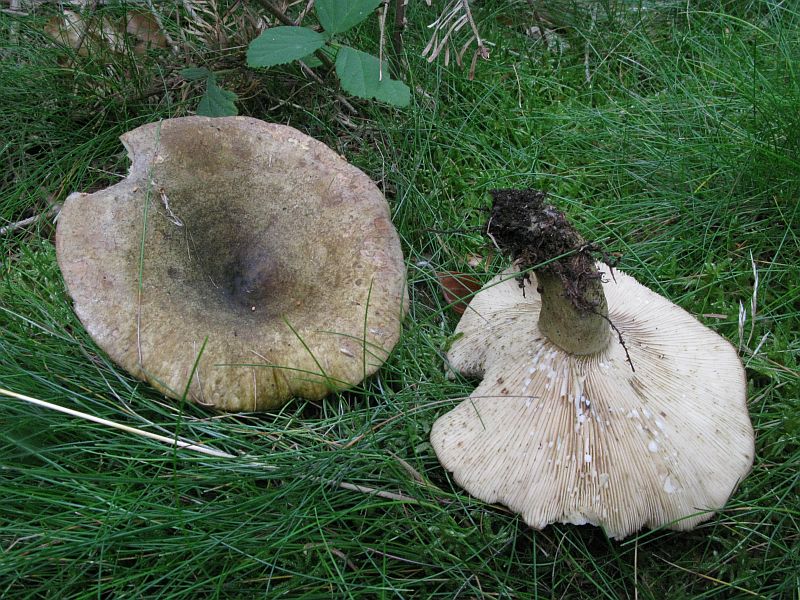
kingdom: Fungi
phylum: Basidiomycota
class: Agaricomycetes
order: Russulales
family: Russulaceae
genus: Lactarius
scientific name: Lactarius necator
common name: manddraber-mælkehat
